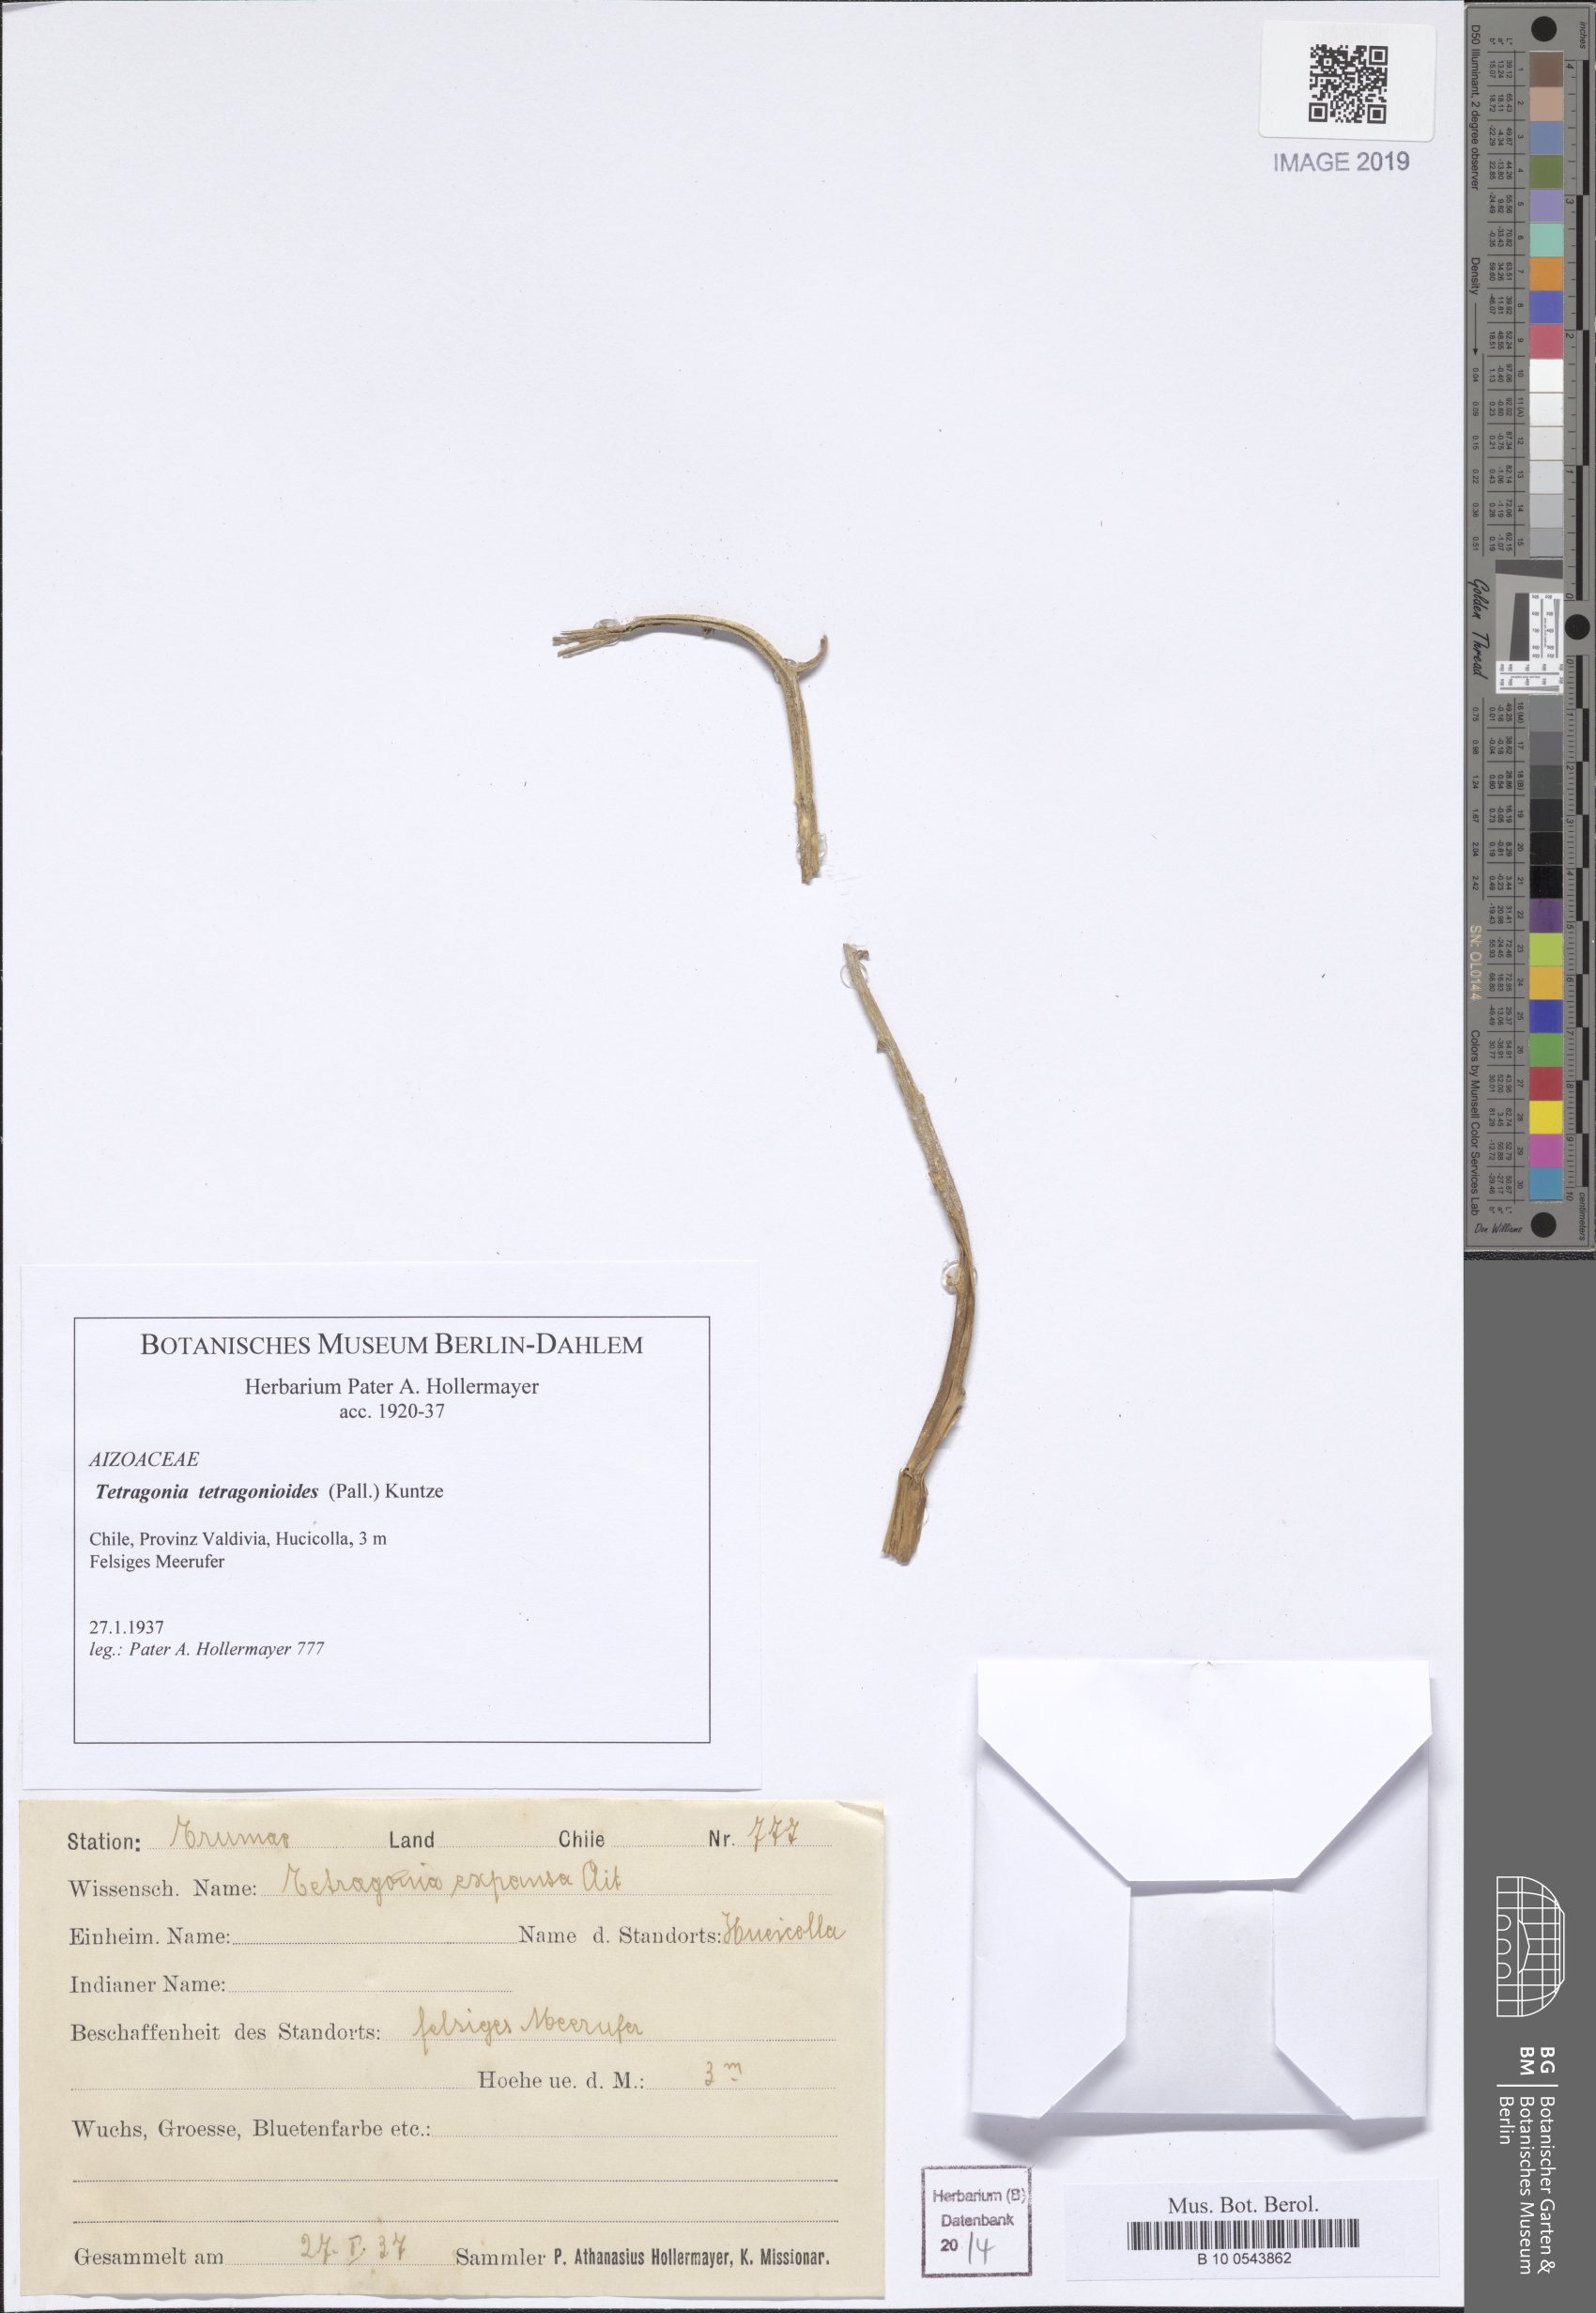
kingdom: Plantae
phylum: Tracheophyta
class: Magnoliopsida
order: Caryophyllales
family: Aizoaceae
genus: Tetragonia
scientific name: Tetragonia tetragonioides
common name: New zealand spinach
